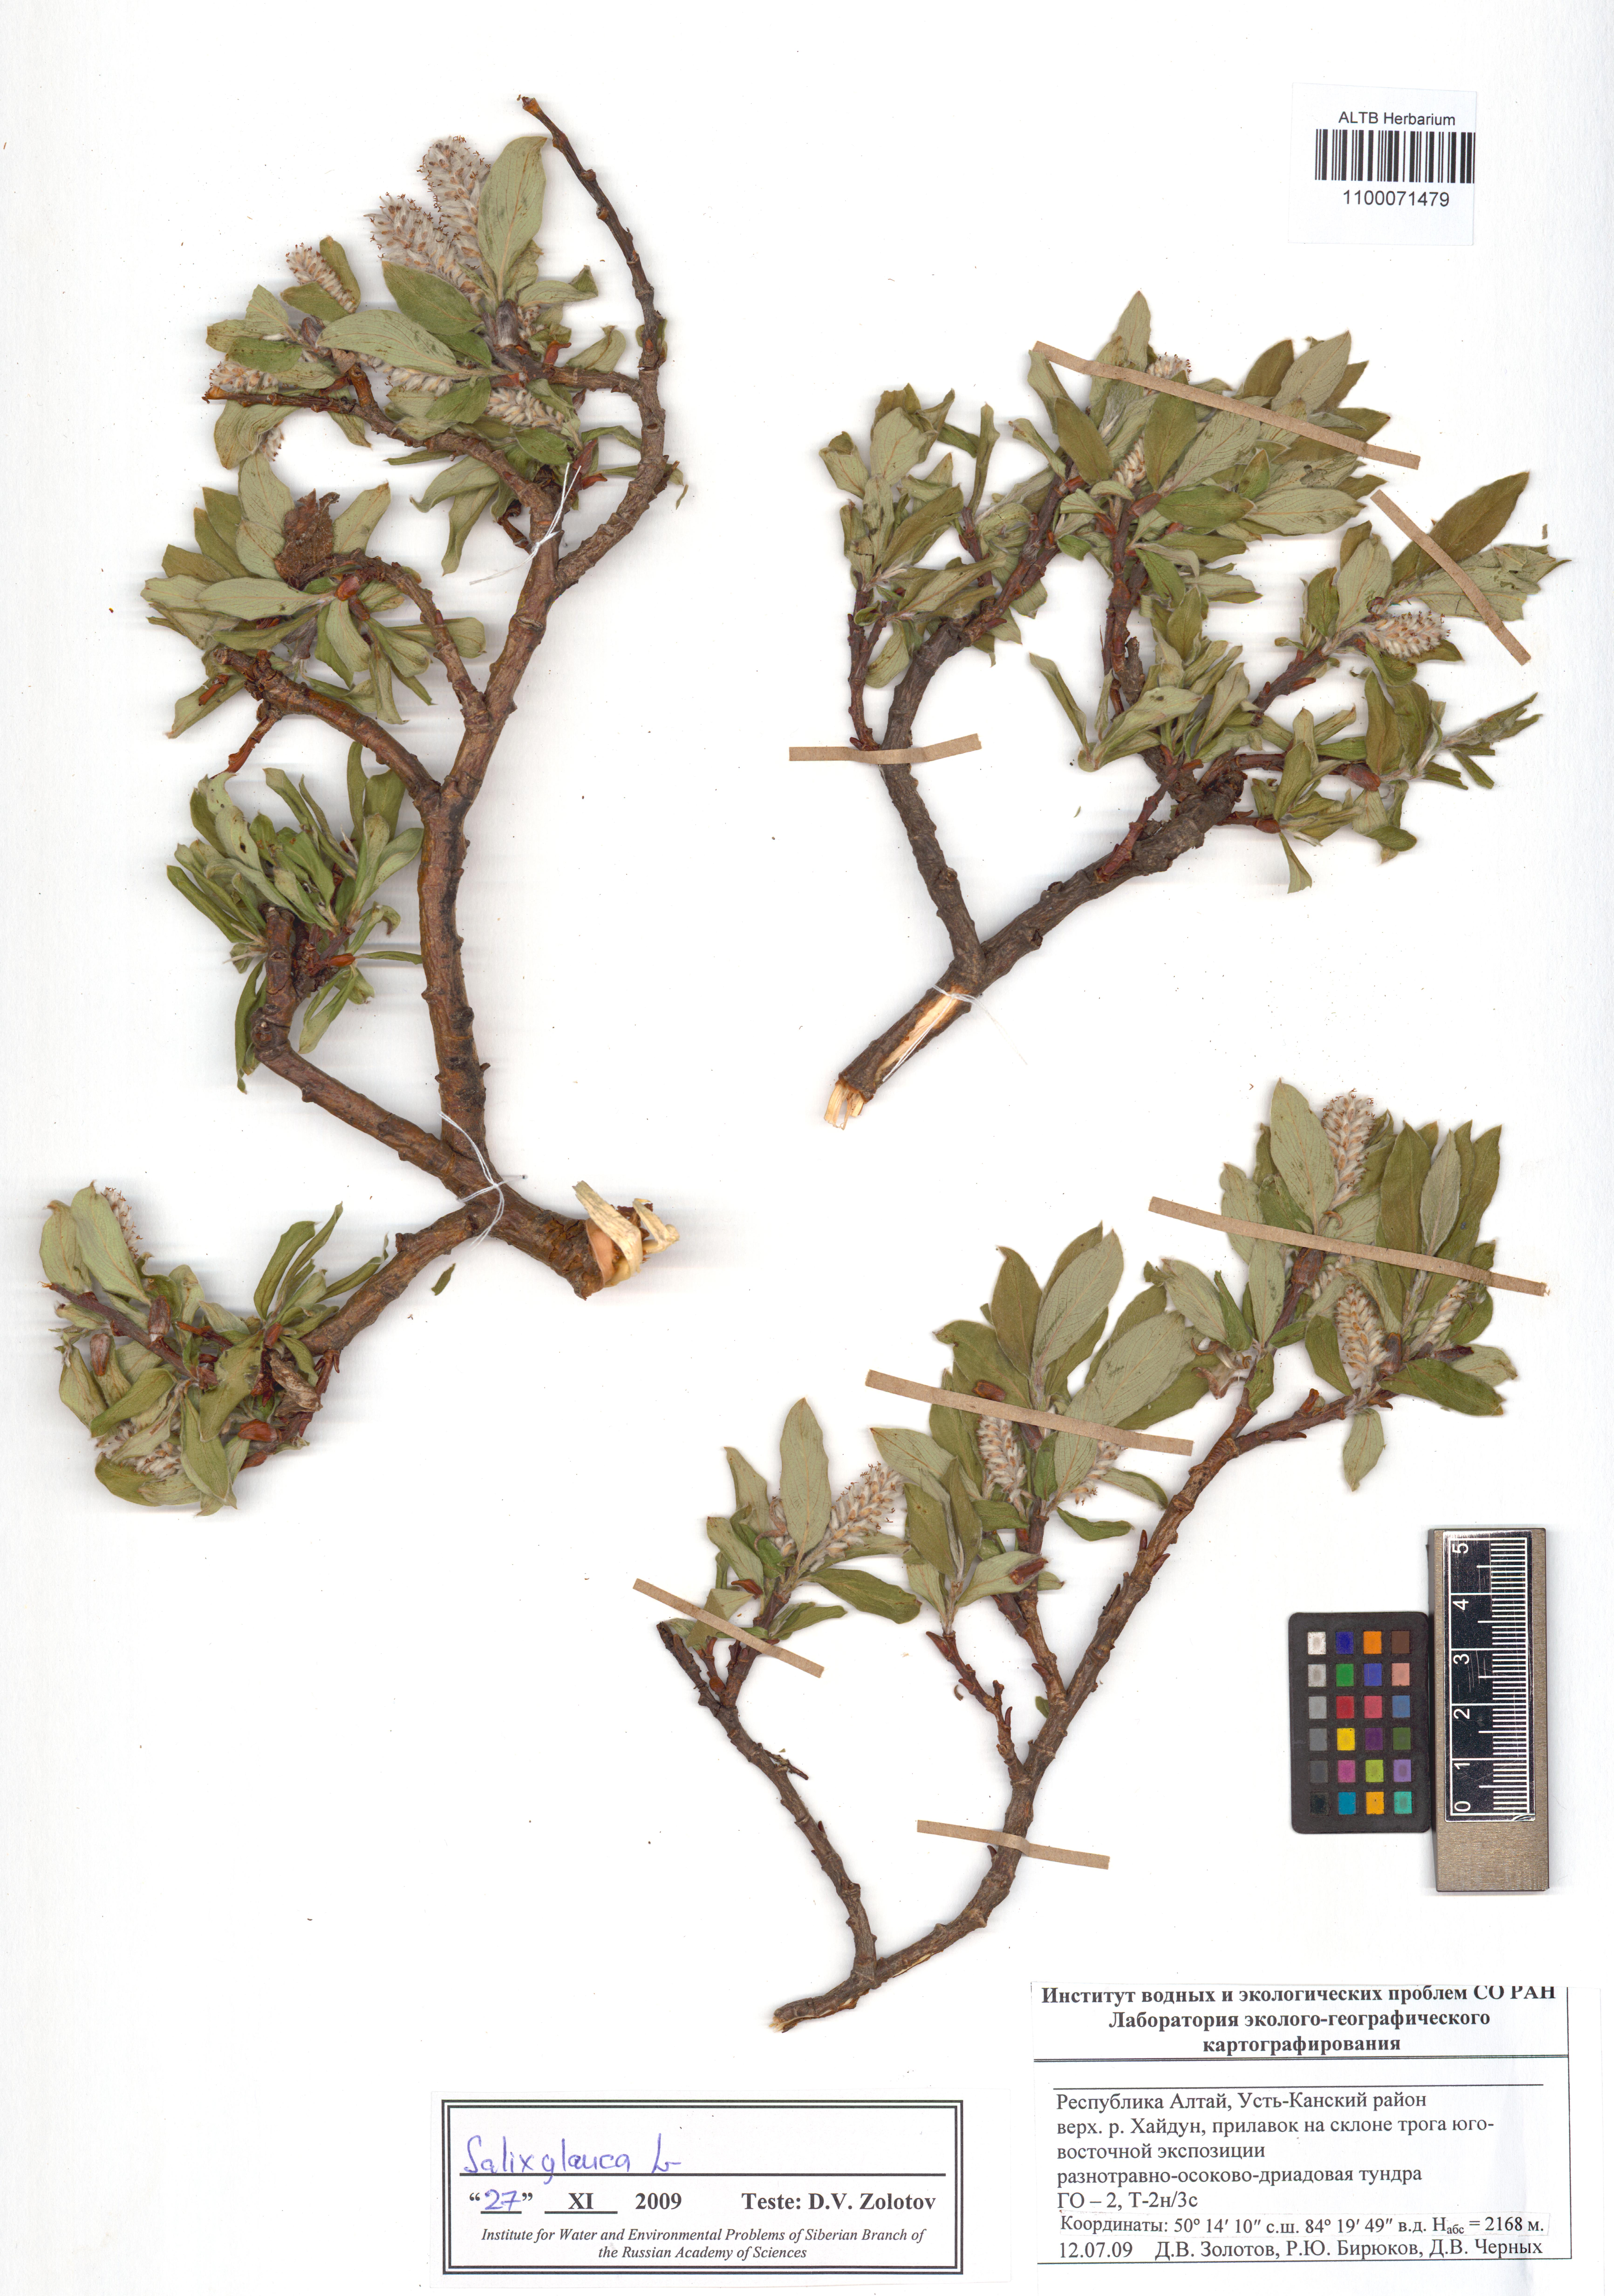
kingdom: Plantae
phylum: Tracheophyta
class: Magnoliopsida
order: Malpighiales
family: Salicaceae
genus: Salix
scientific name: Salix glauca
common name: Glaucous willow
